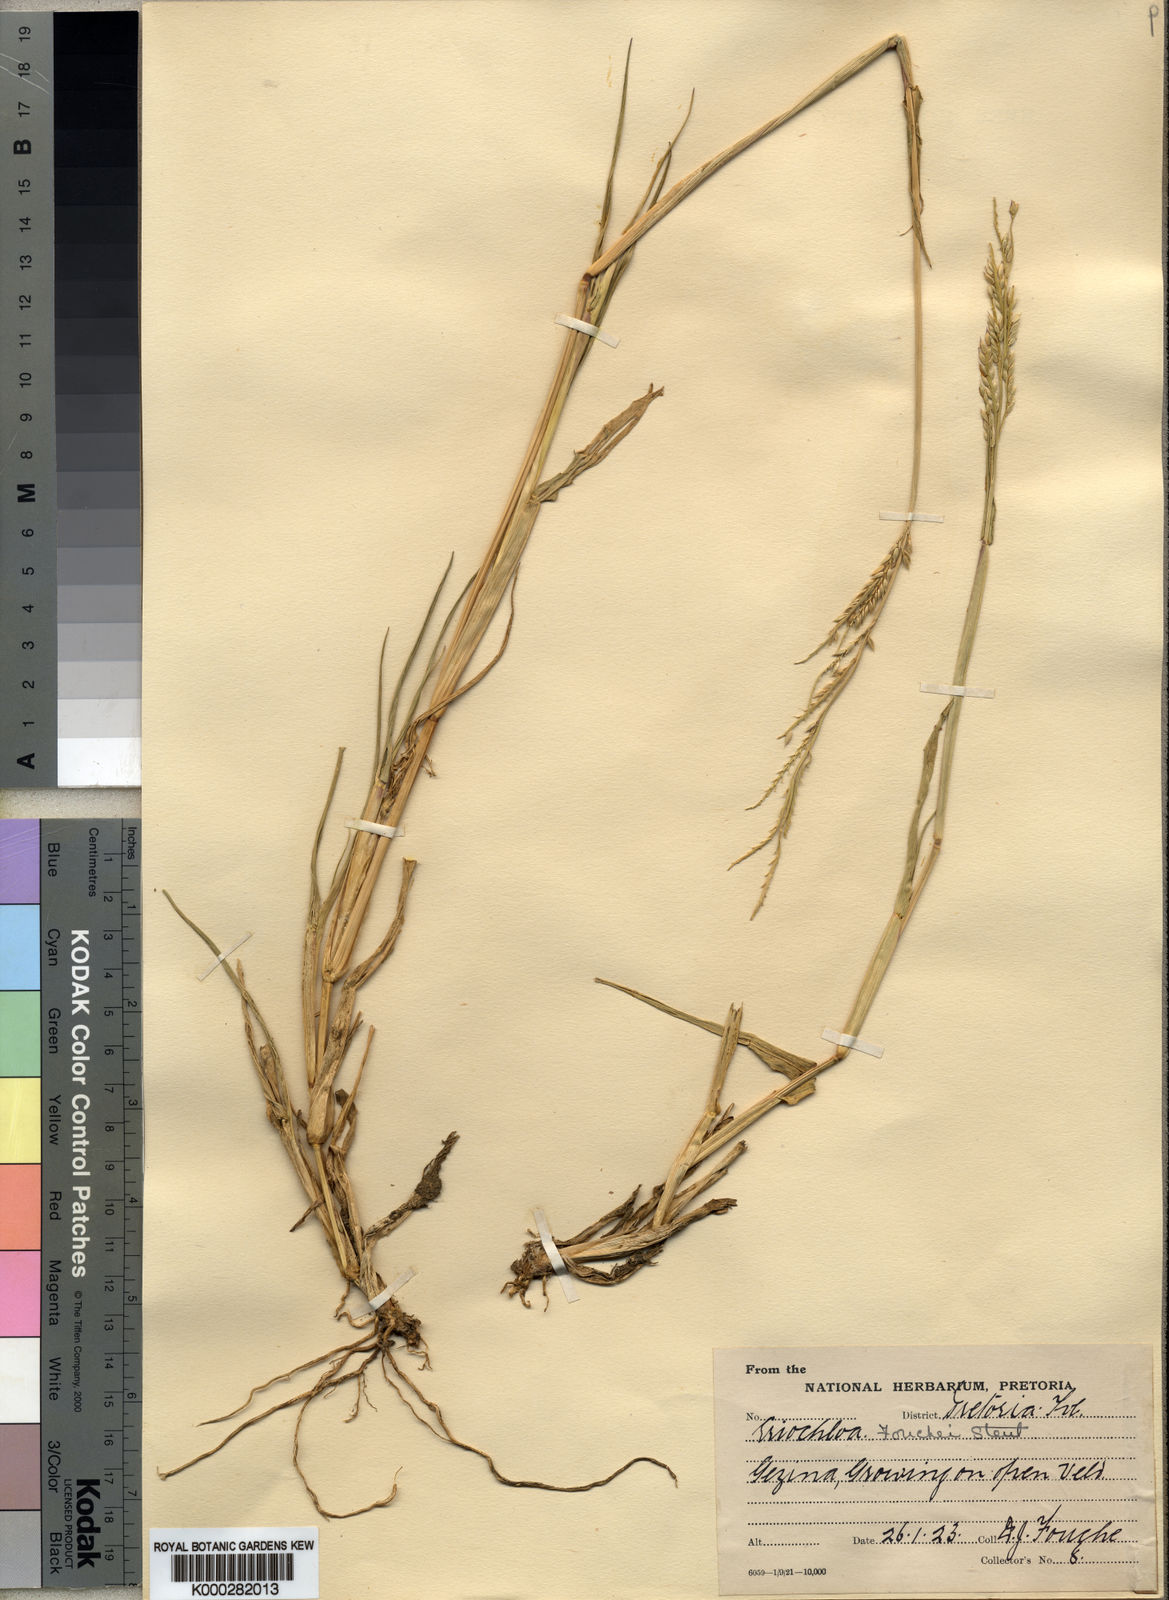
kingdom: Plantae
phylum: Tracheophyta
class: Liliopsida
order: Poales
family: Poaceae
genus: Eriochloa
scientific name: Eriochloa barbatus
